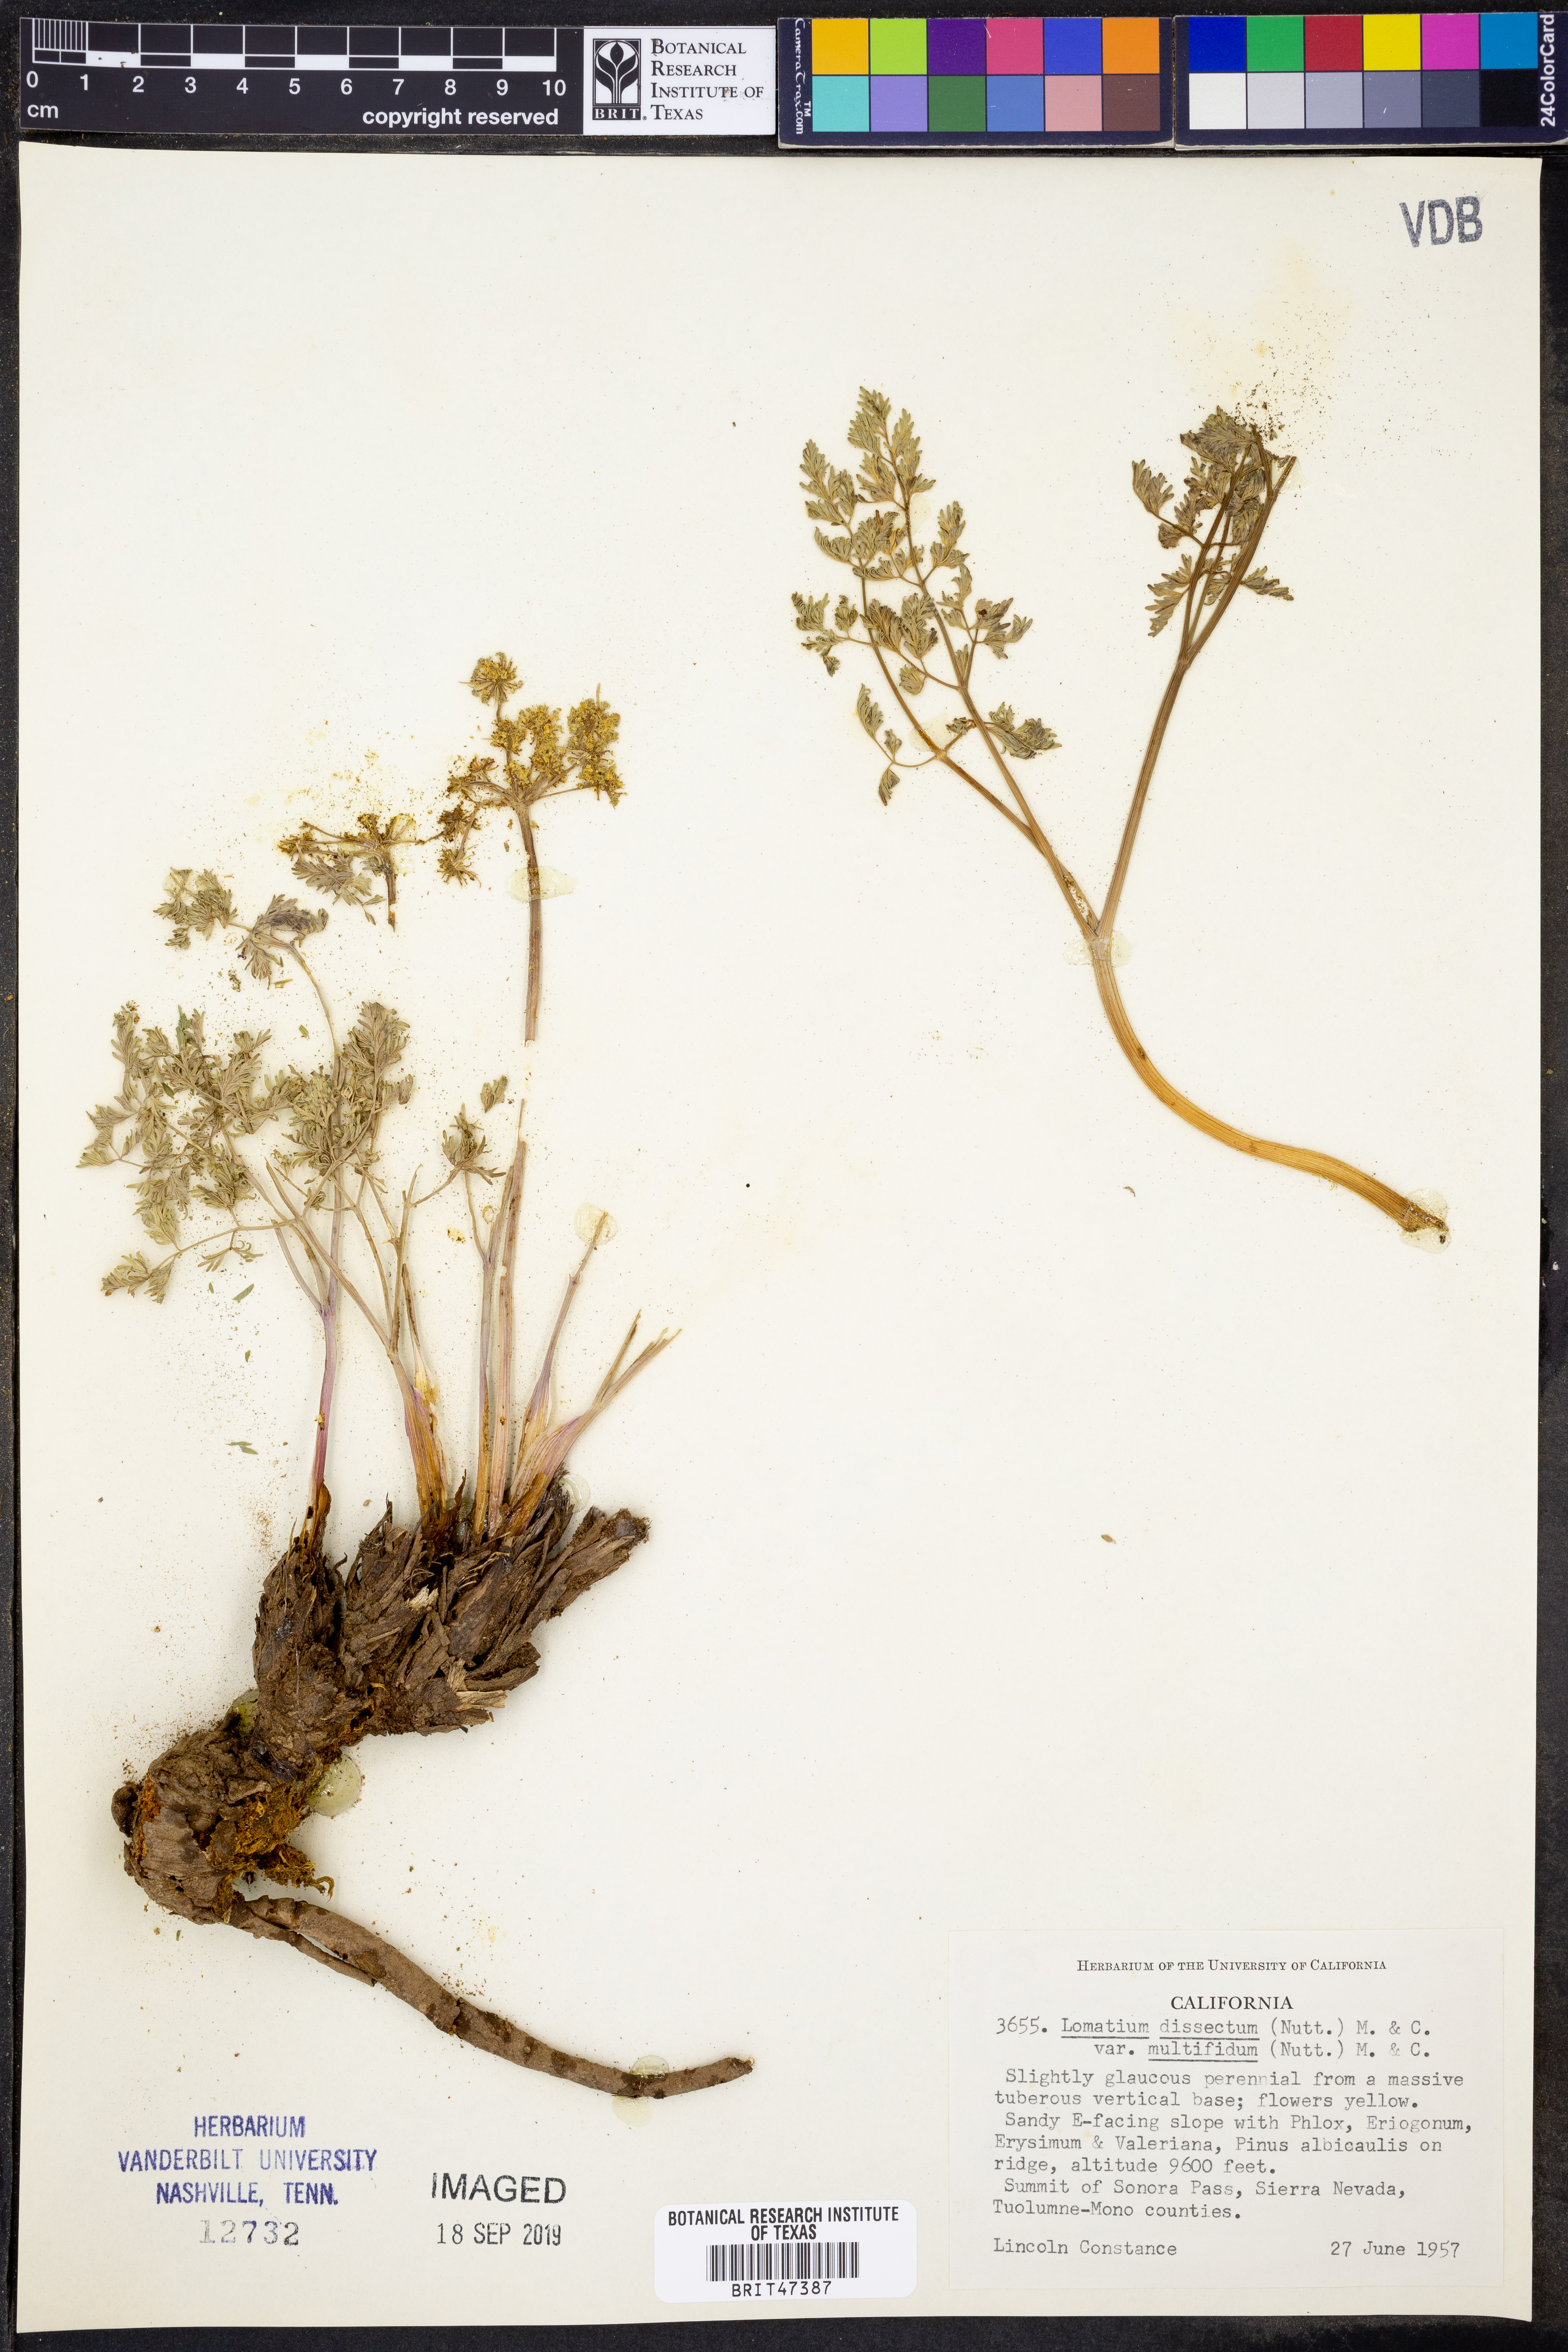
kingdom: Plantae
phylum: Tracheophyta
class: Magnoliopsida
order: Apiales
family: Apiaceae
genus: Lomatium
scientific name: Lomatium multifidum
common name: Carrot-leaved biscuitroot
